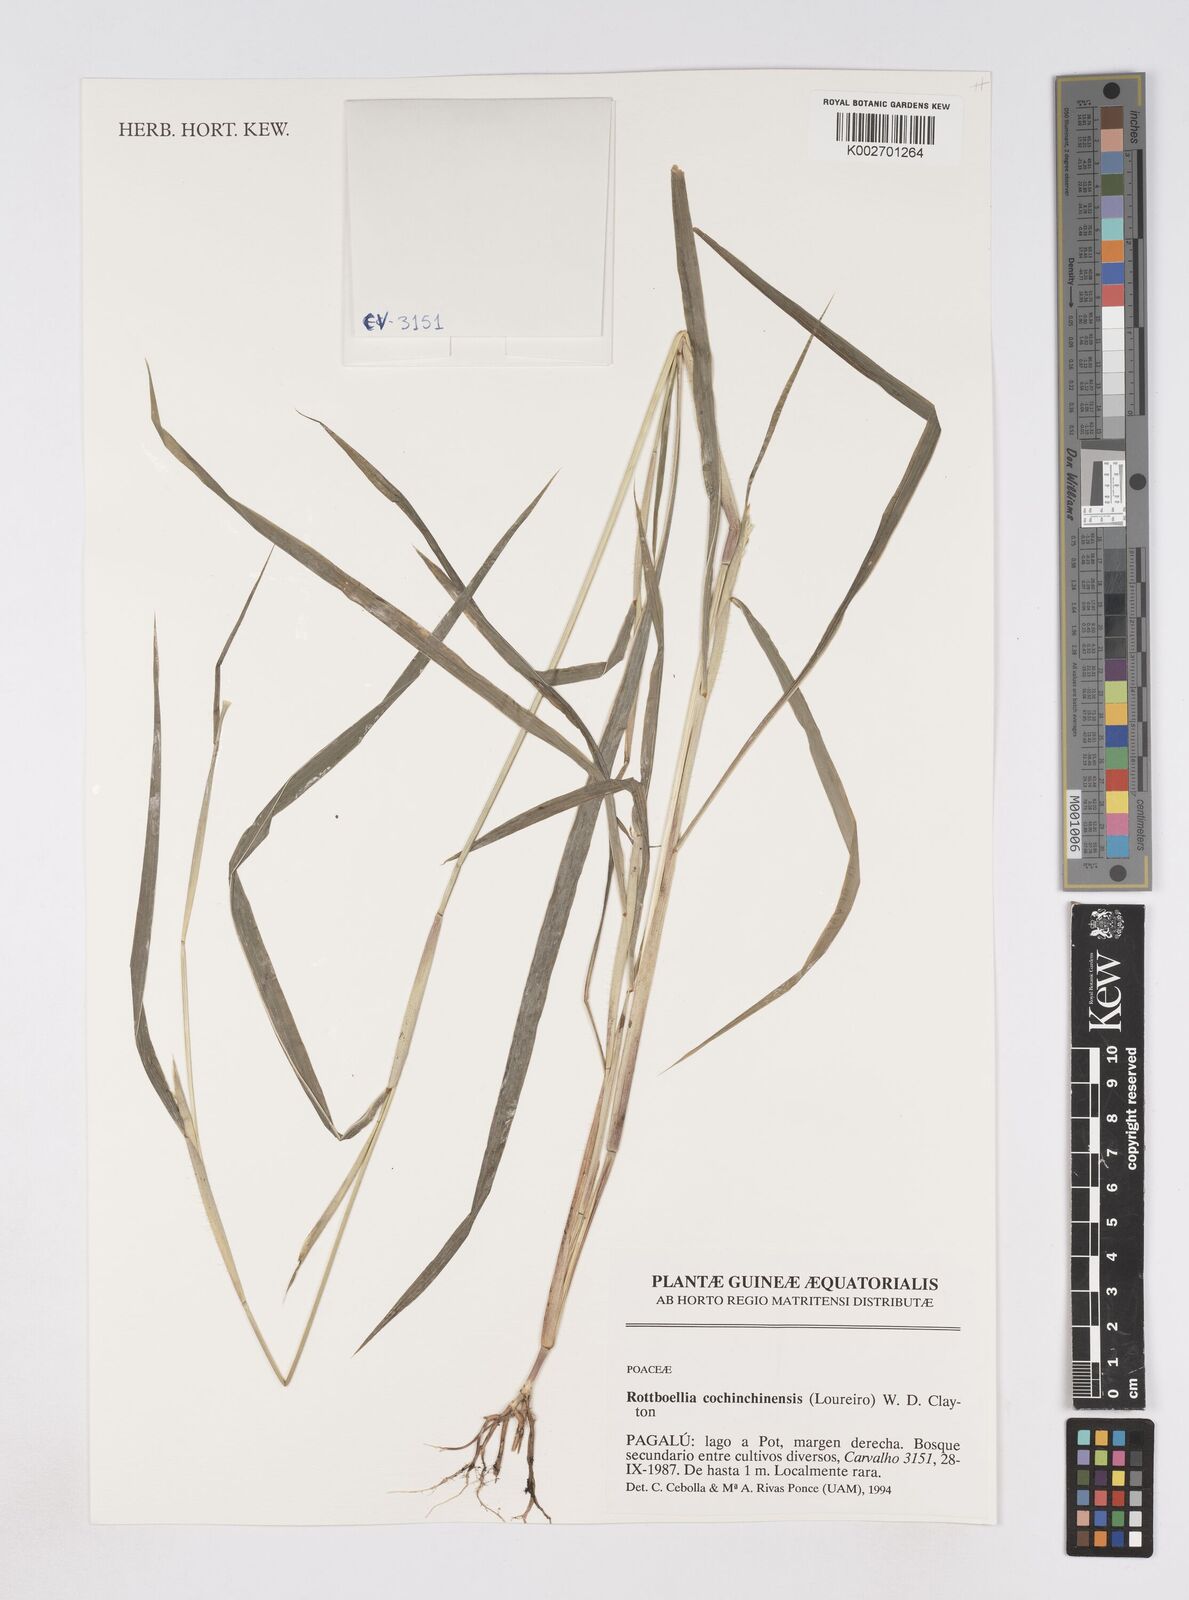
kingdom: Plantae
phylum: Tracheophyta
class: Liliopsida
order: Poales
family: Poaceae
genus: Rottboellia
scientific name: Rottboellia cochinchinensis
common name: Itchgrass
